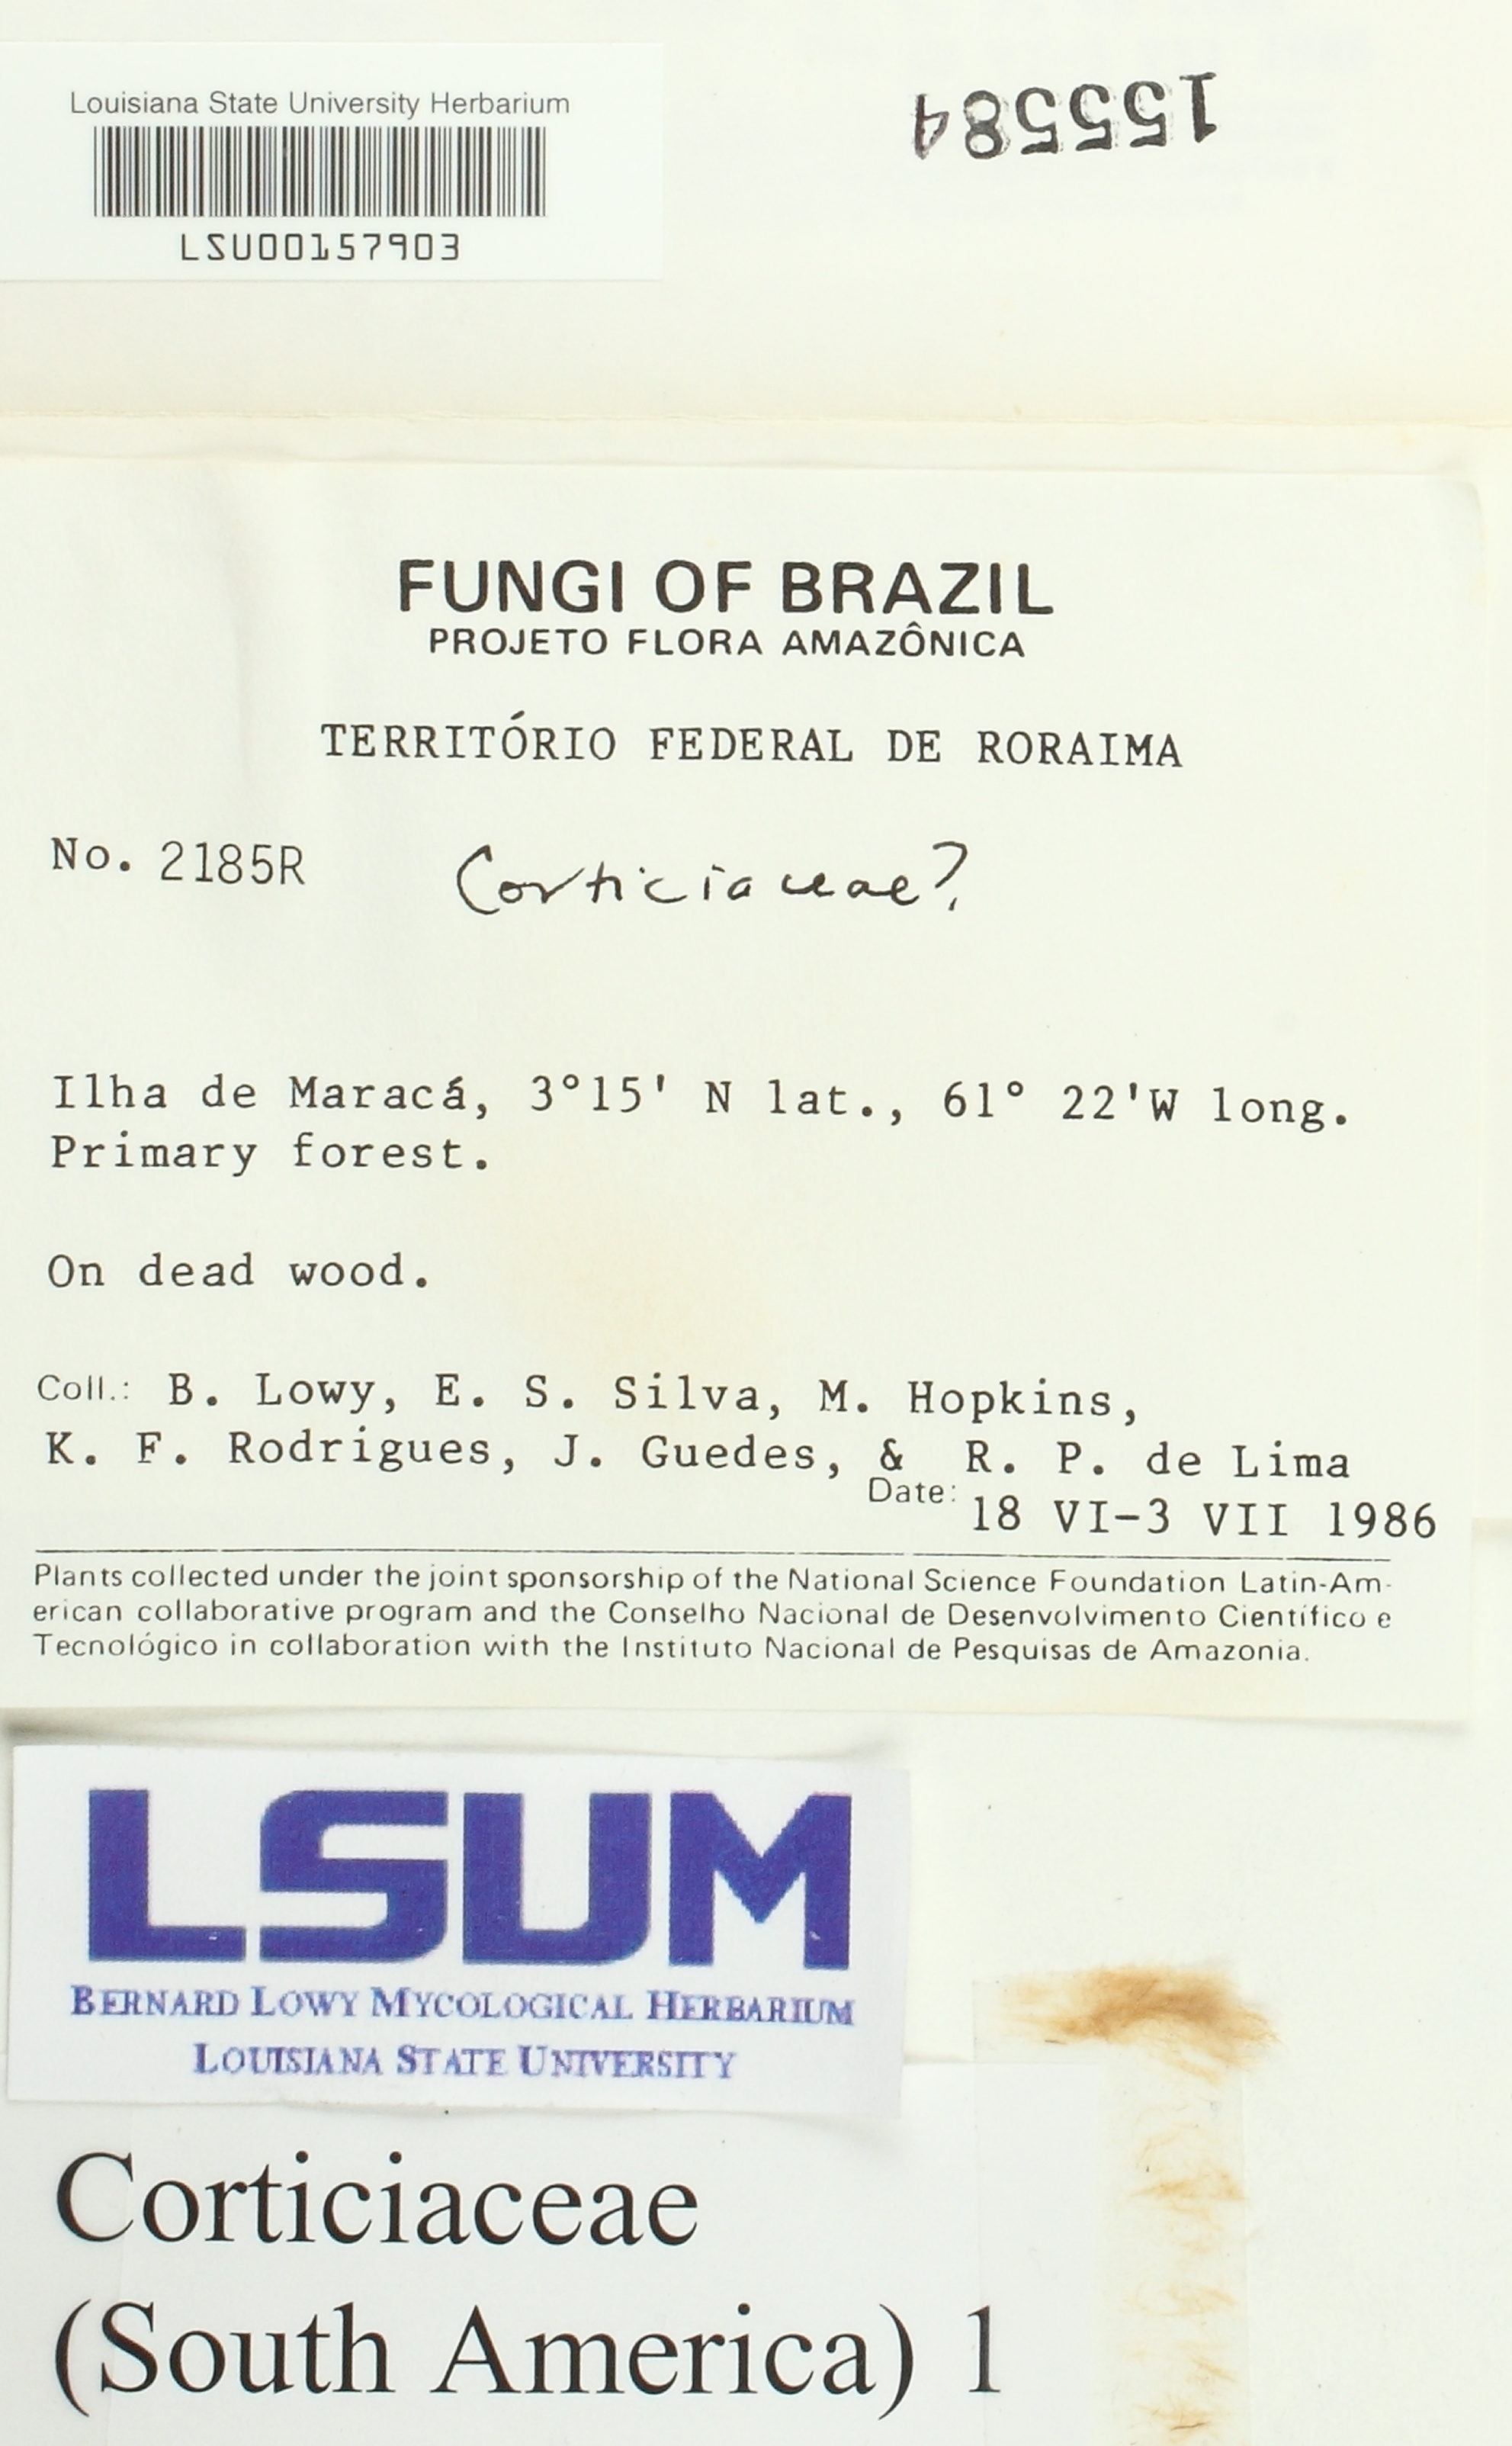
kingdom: Fungi
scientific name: Fungi
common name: Fungi
